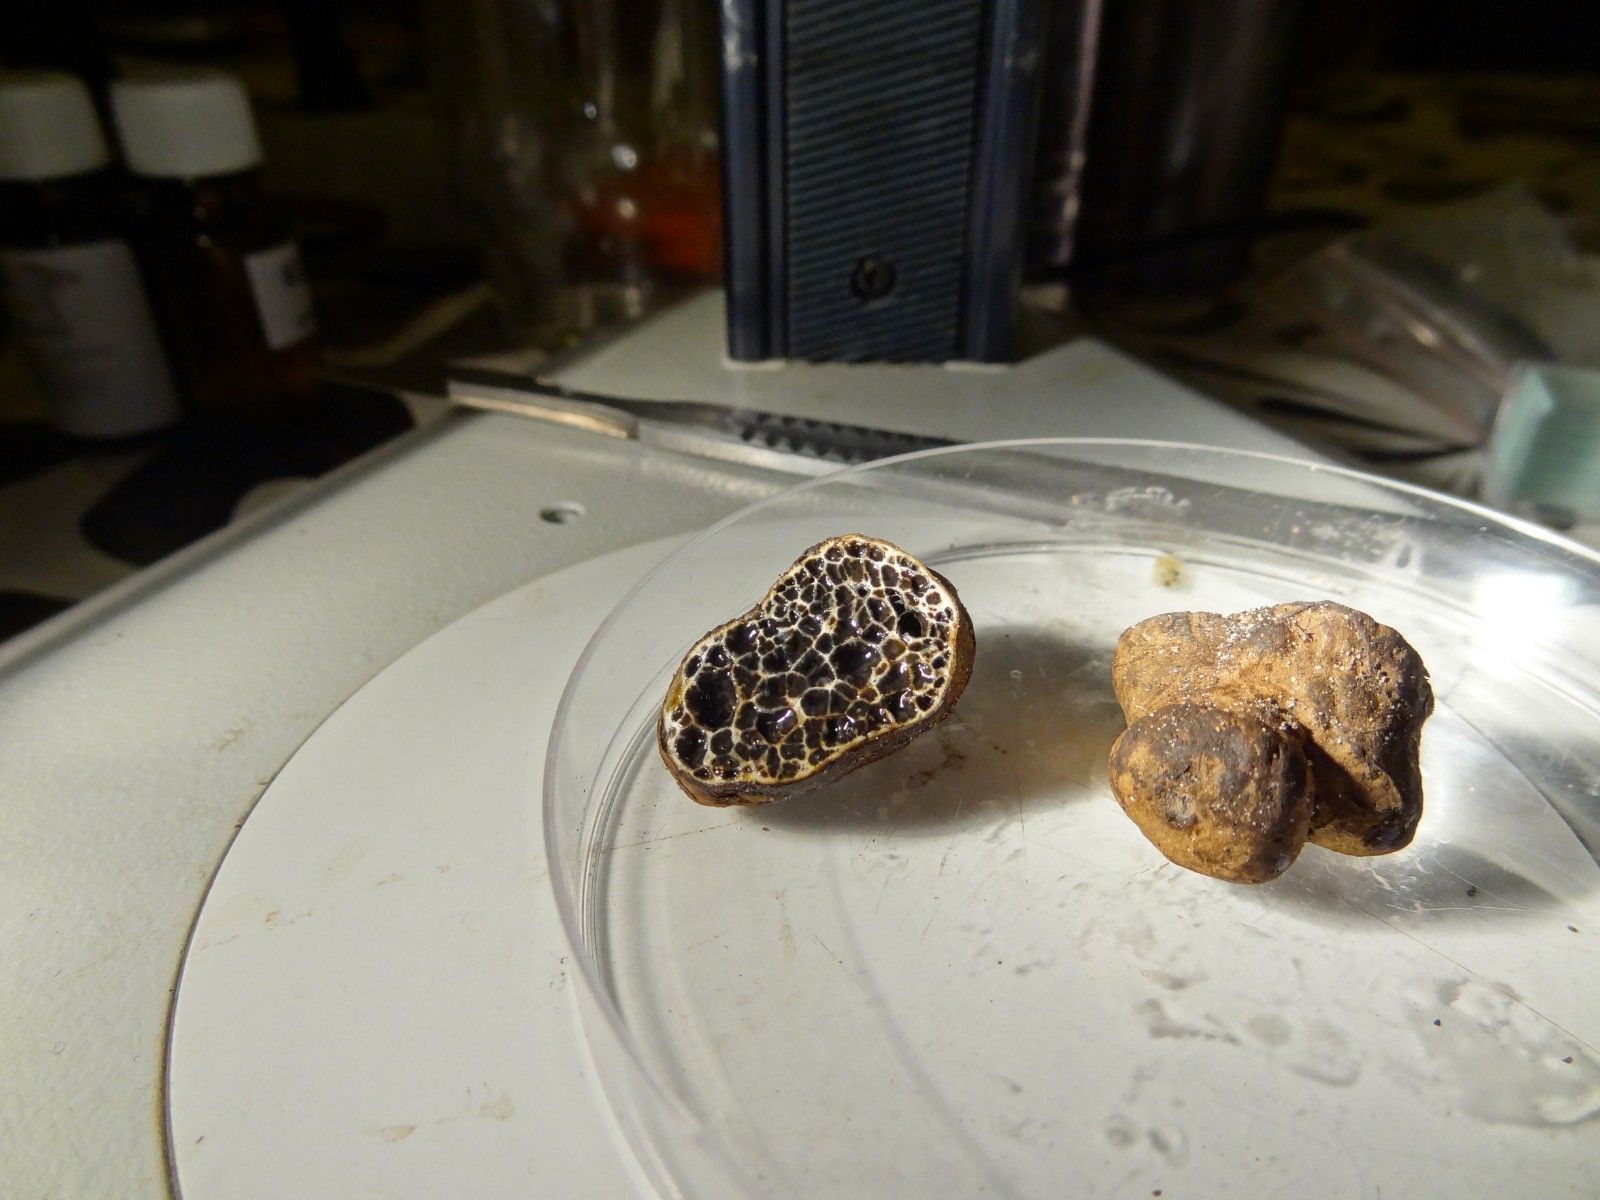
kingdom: Fungi
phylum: Basidiomycota
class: Agaricomycetes
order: Boletales
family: Paxillaceae
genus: Melanogaster
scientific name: Melanogaster ambiguus
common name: lille slimtrøffel
